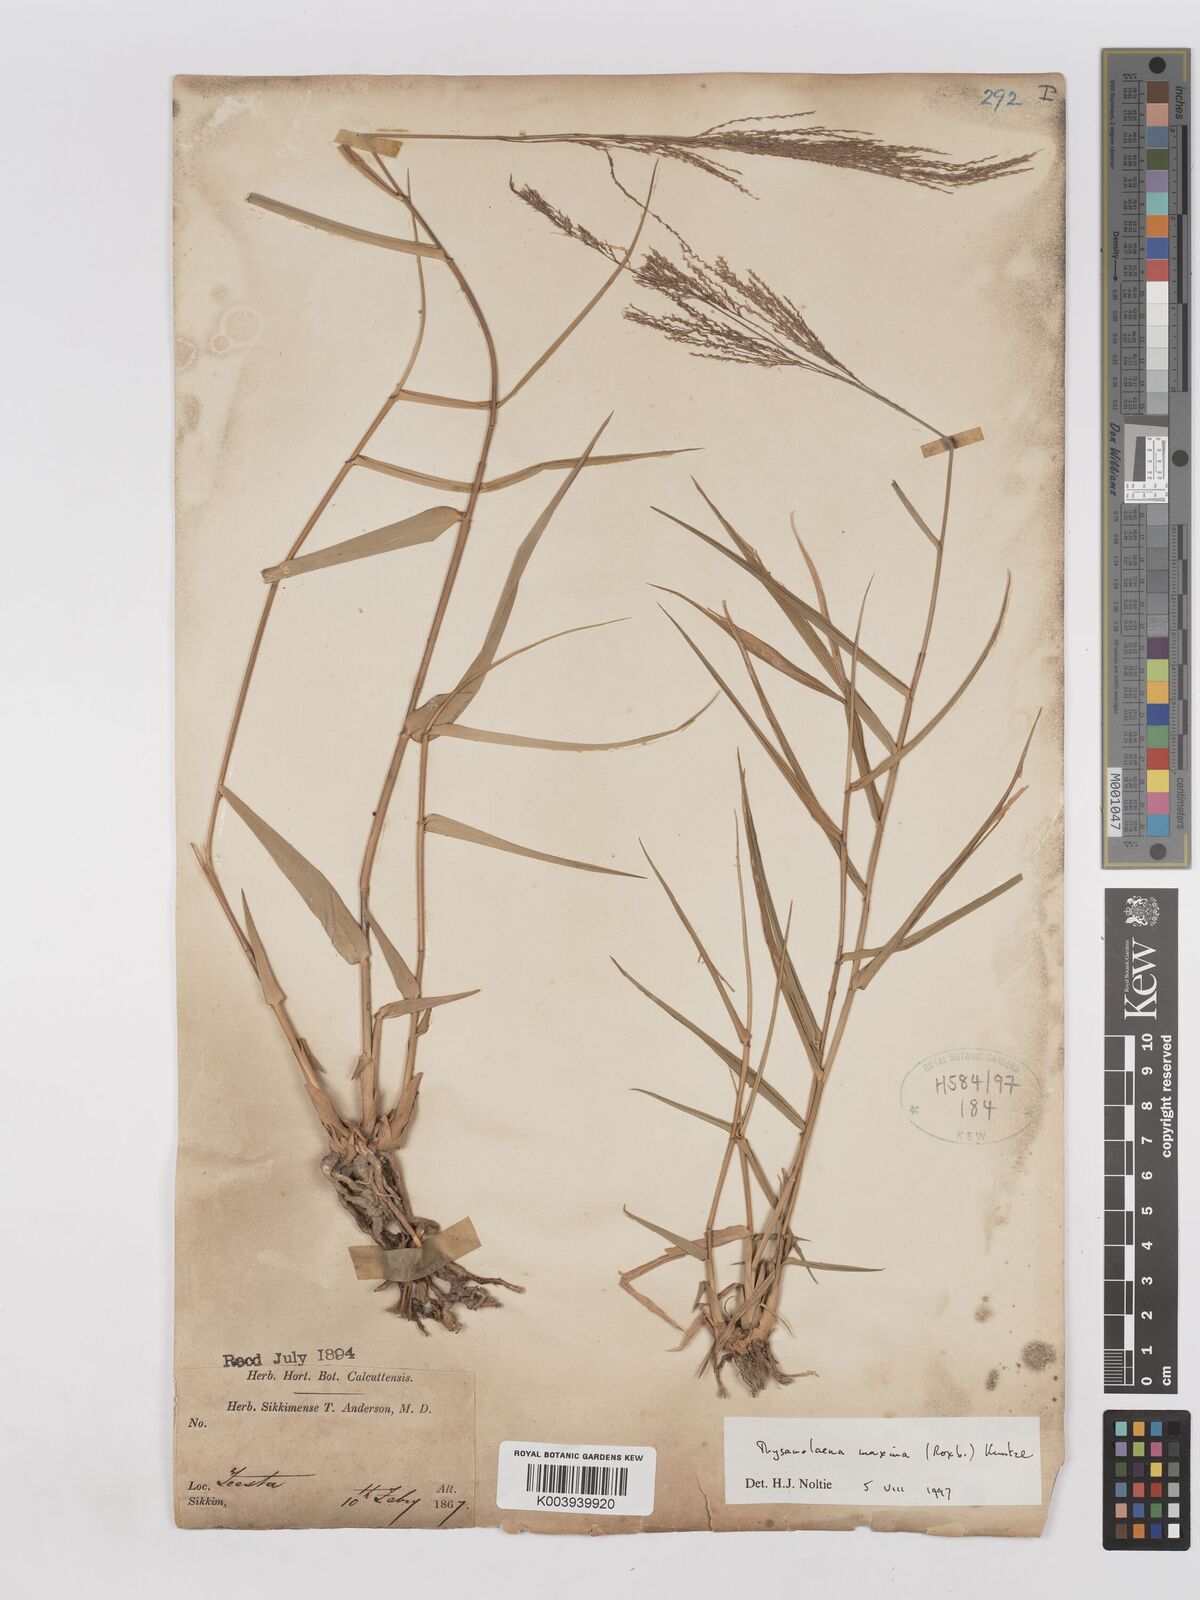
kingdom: Plantae
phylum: Tracheophyta
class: Liliopsida
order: Poales
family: Poaceae
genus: Thysanolaena
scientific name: Thysanolaena latifolia
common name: Tiger grass
